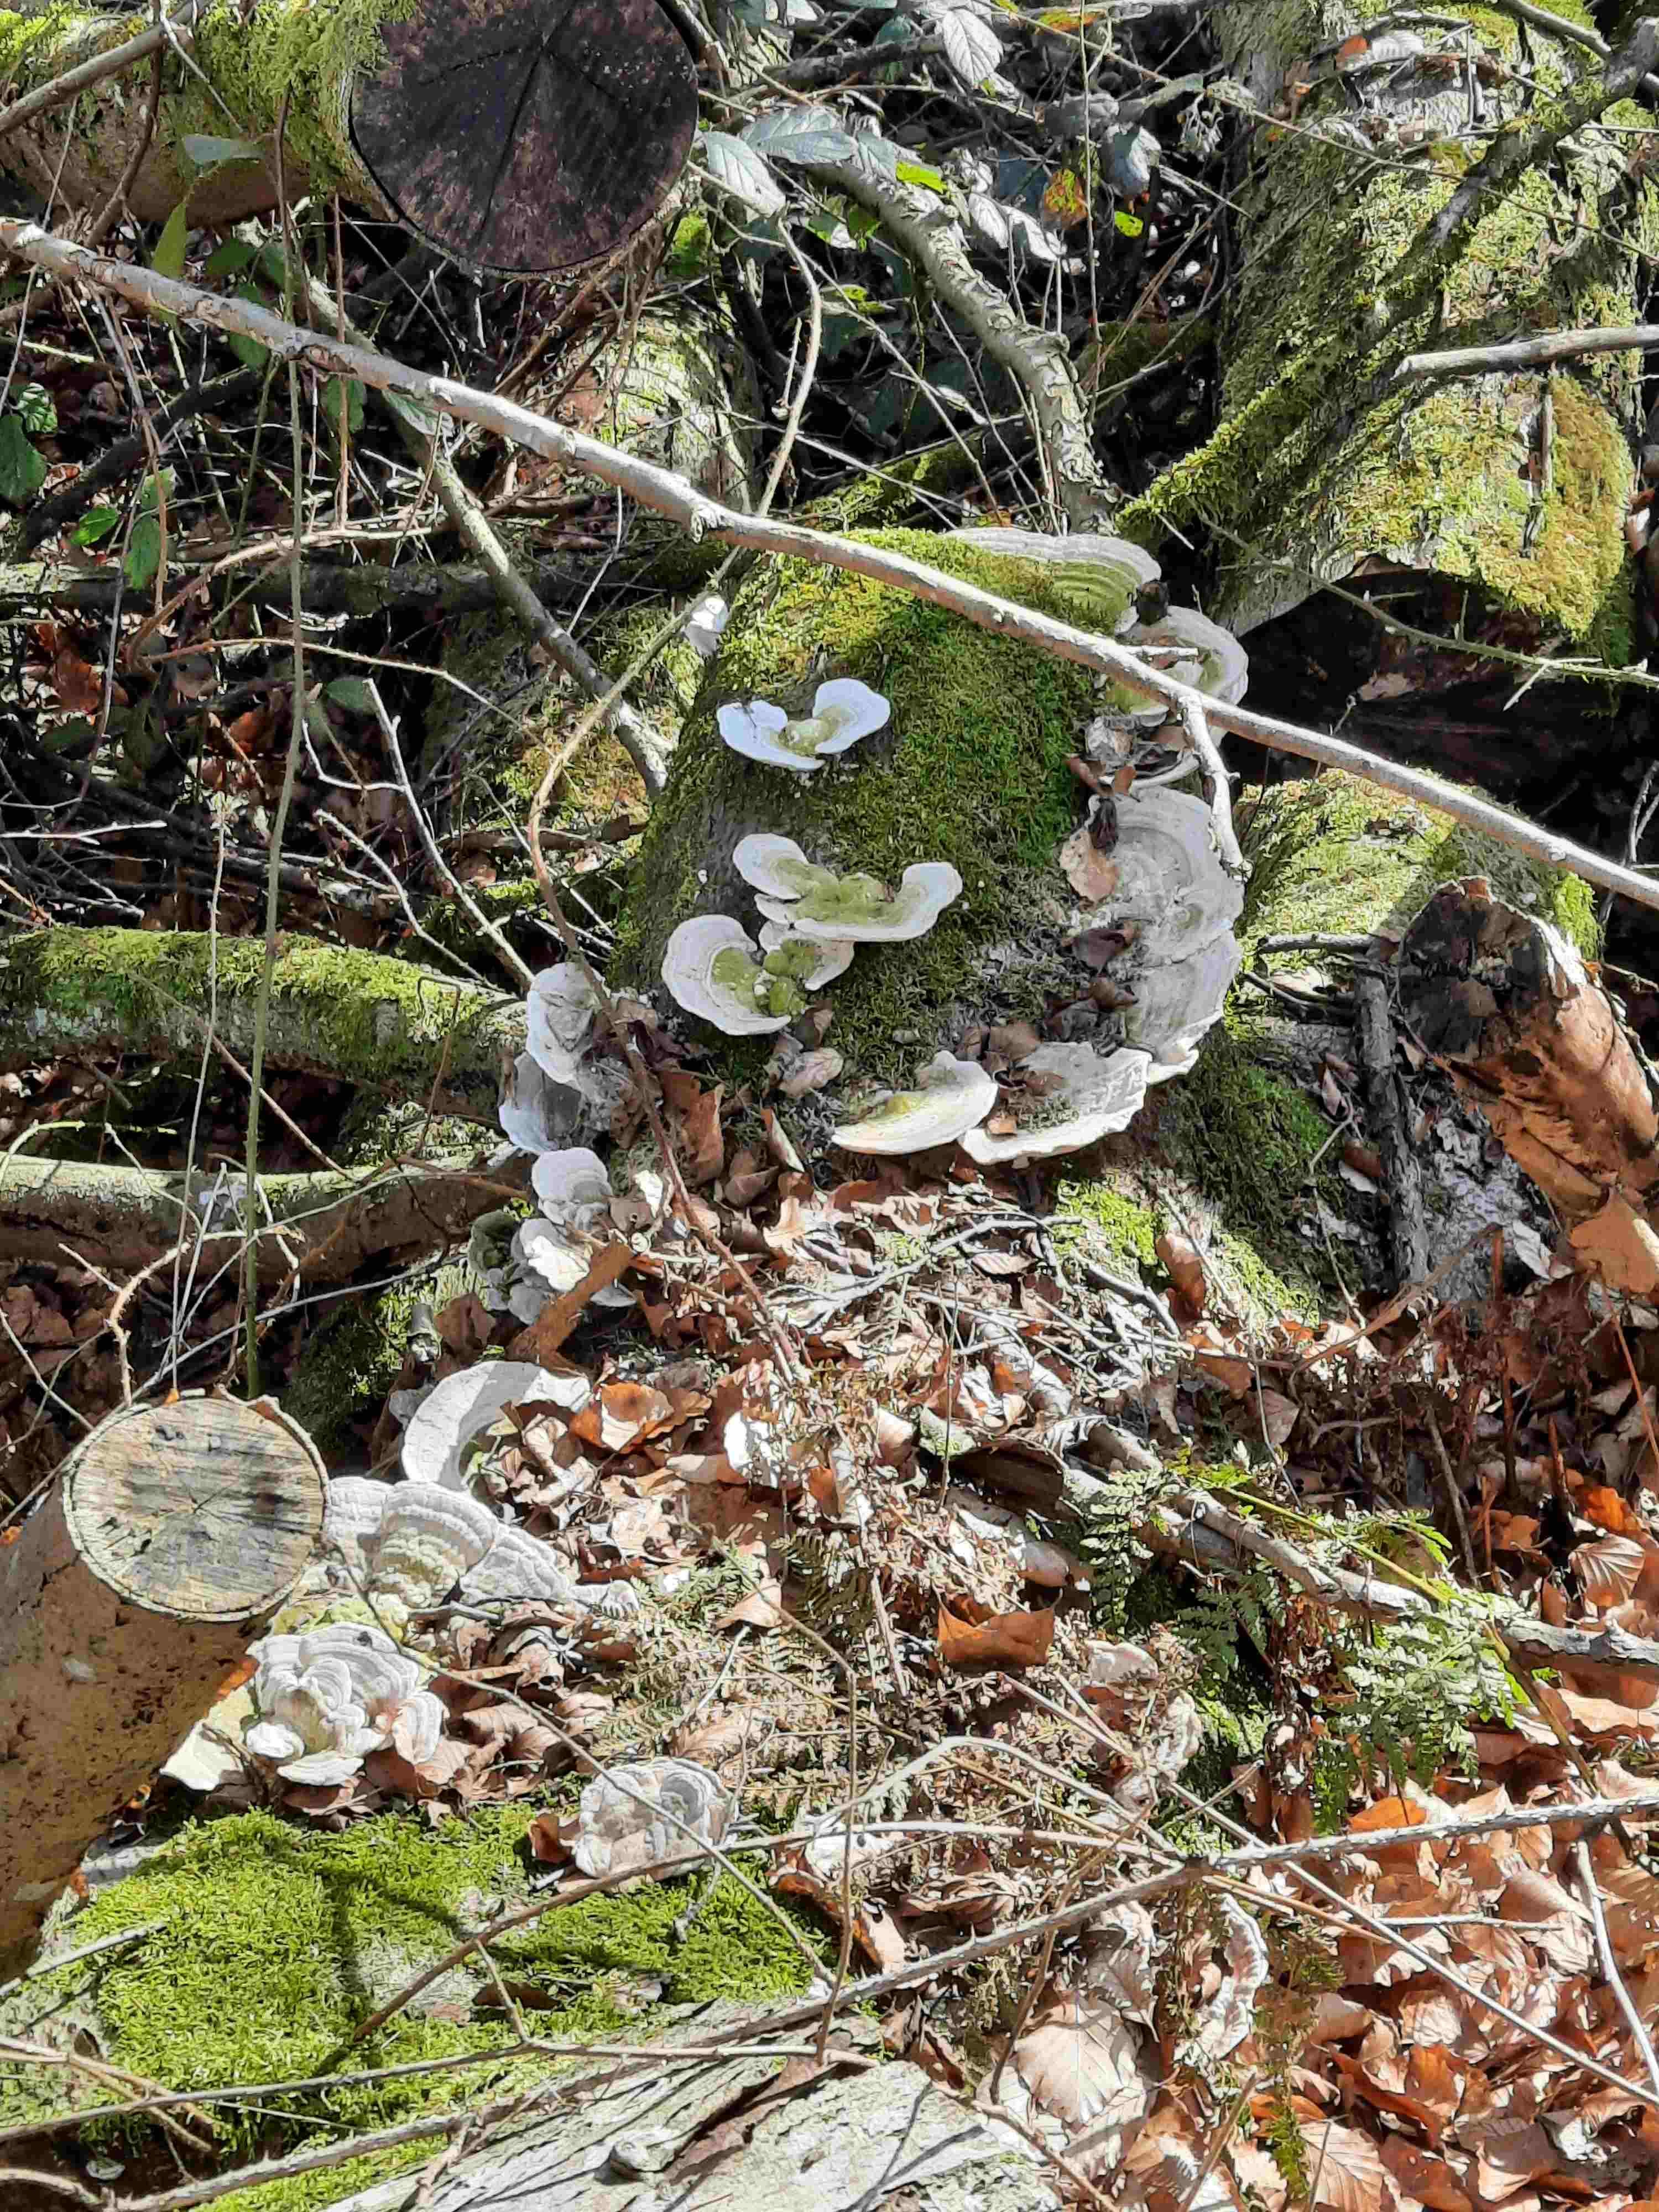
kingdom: Fungi
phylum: Basidiomycota
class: Agaricomycetes
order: Polyporales
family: Polyporaceae
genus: Trametes
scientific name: Trametes gibbosa
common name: puklet læderporesvamp
